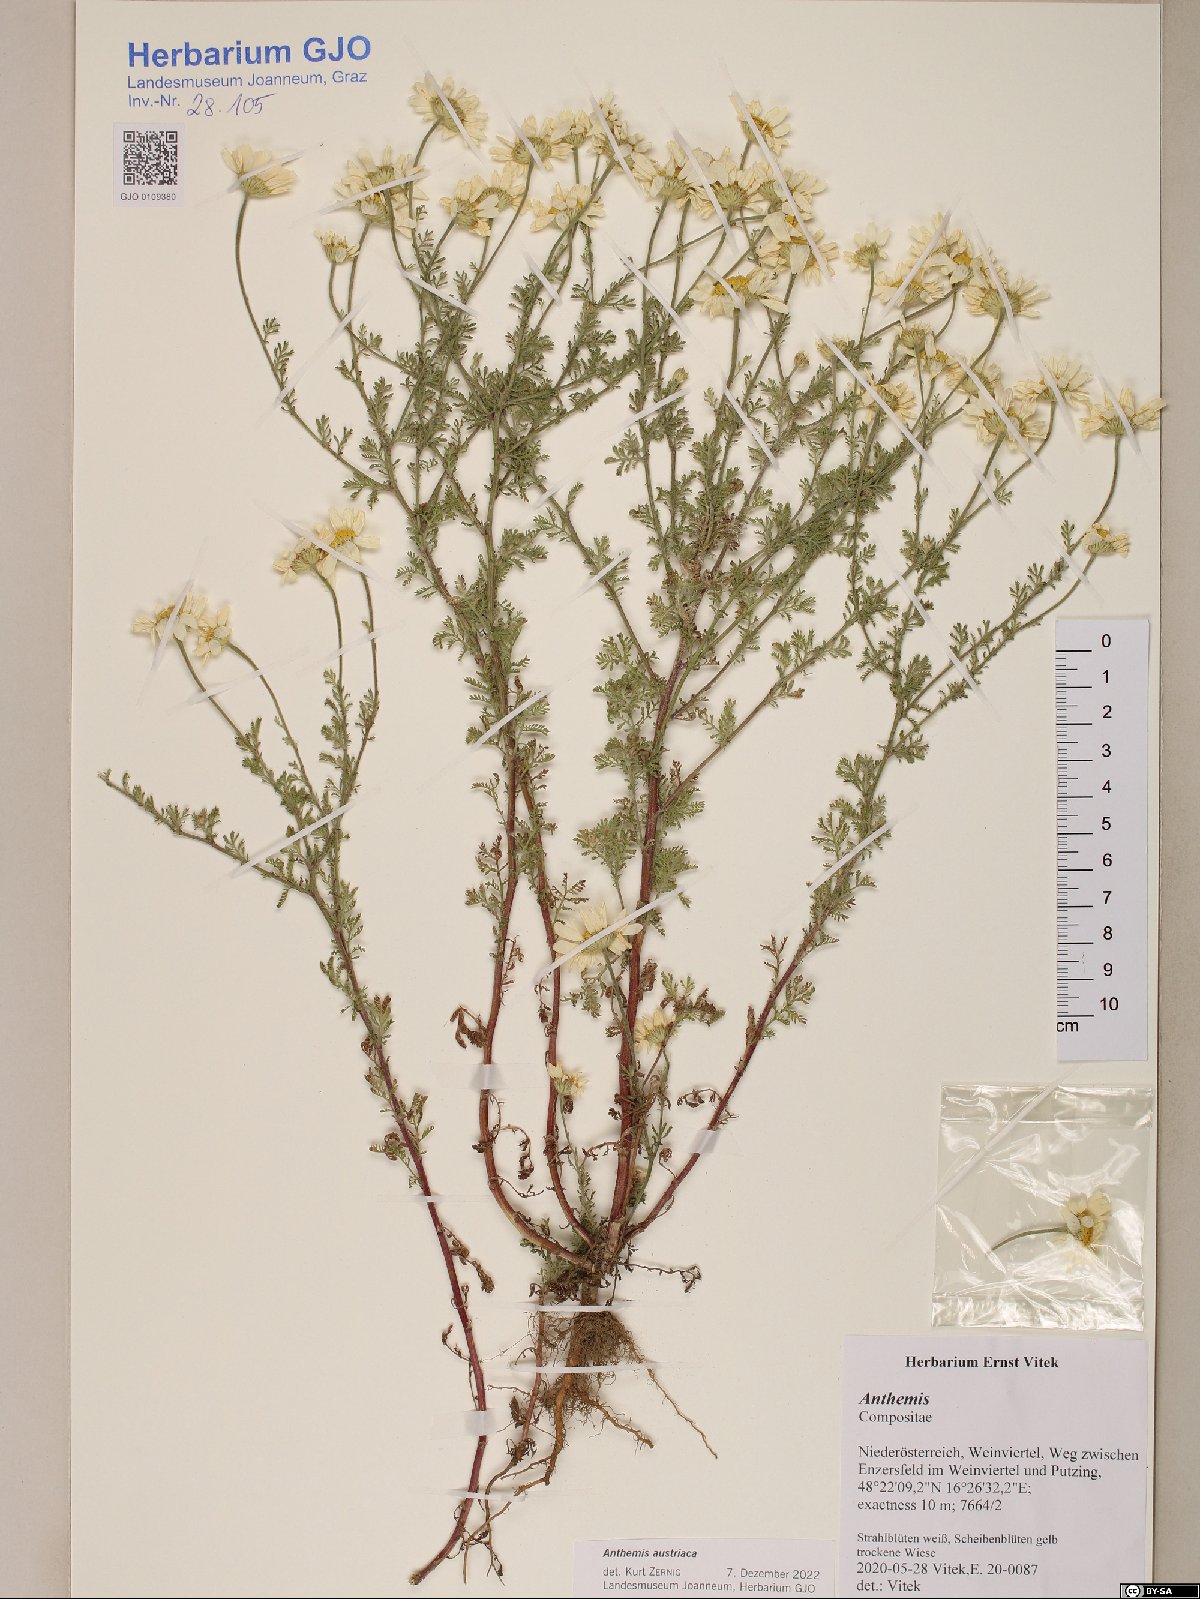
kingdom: Plantae
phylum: Tracheophyta
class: Magnoliopsida
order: Asterales
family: Asteraceae
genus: Cota
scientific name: Cota austriaca
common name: Austrian chamomile
